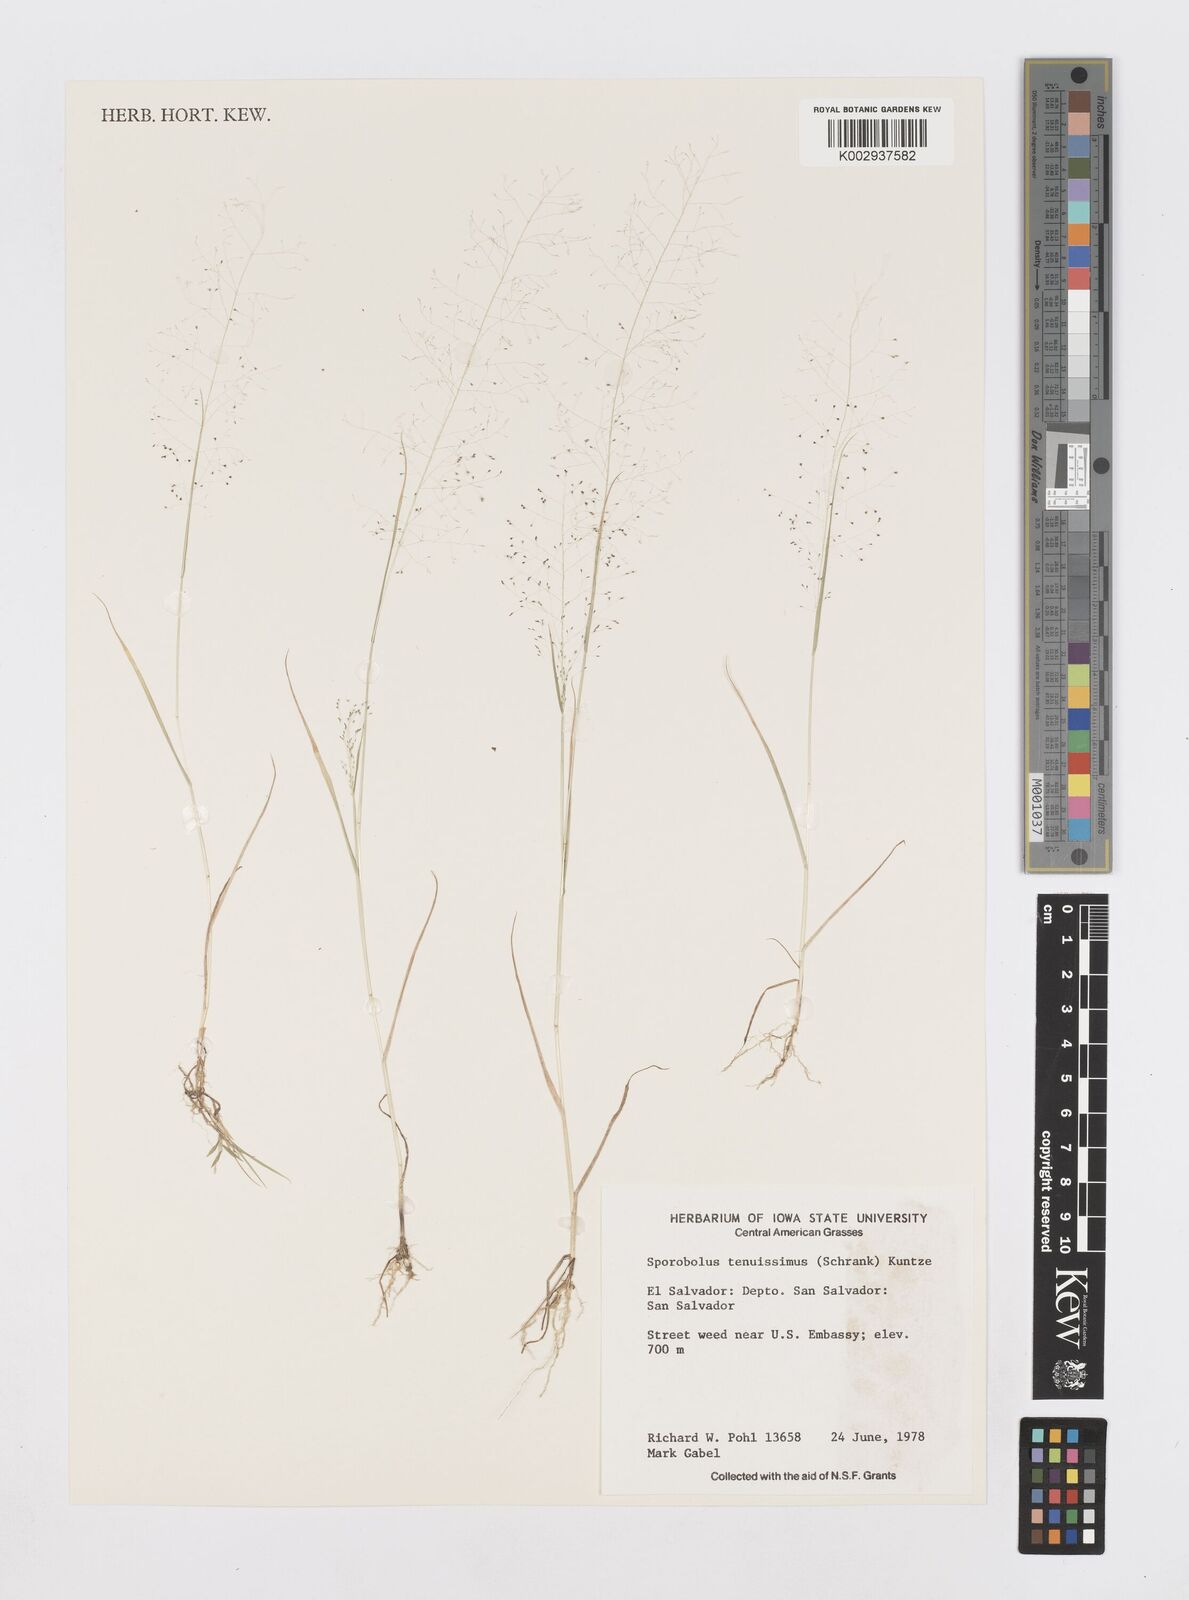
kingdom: Plantae
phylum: Tracheophyta
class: Liliopsida
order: Poales
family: Poaceae
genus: Sporobolus
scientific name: Sporobolus tenuissimus
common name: Tropical dropseed
